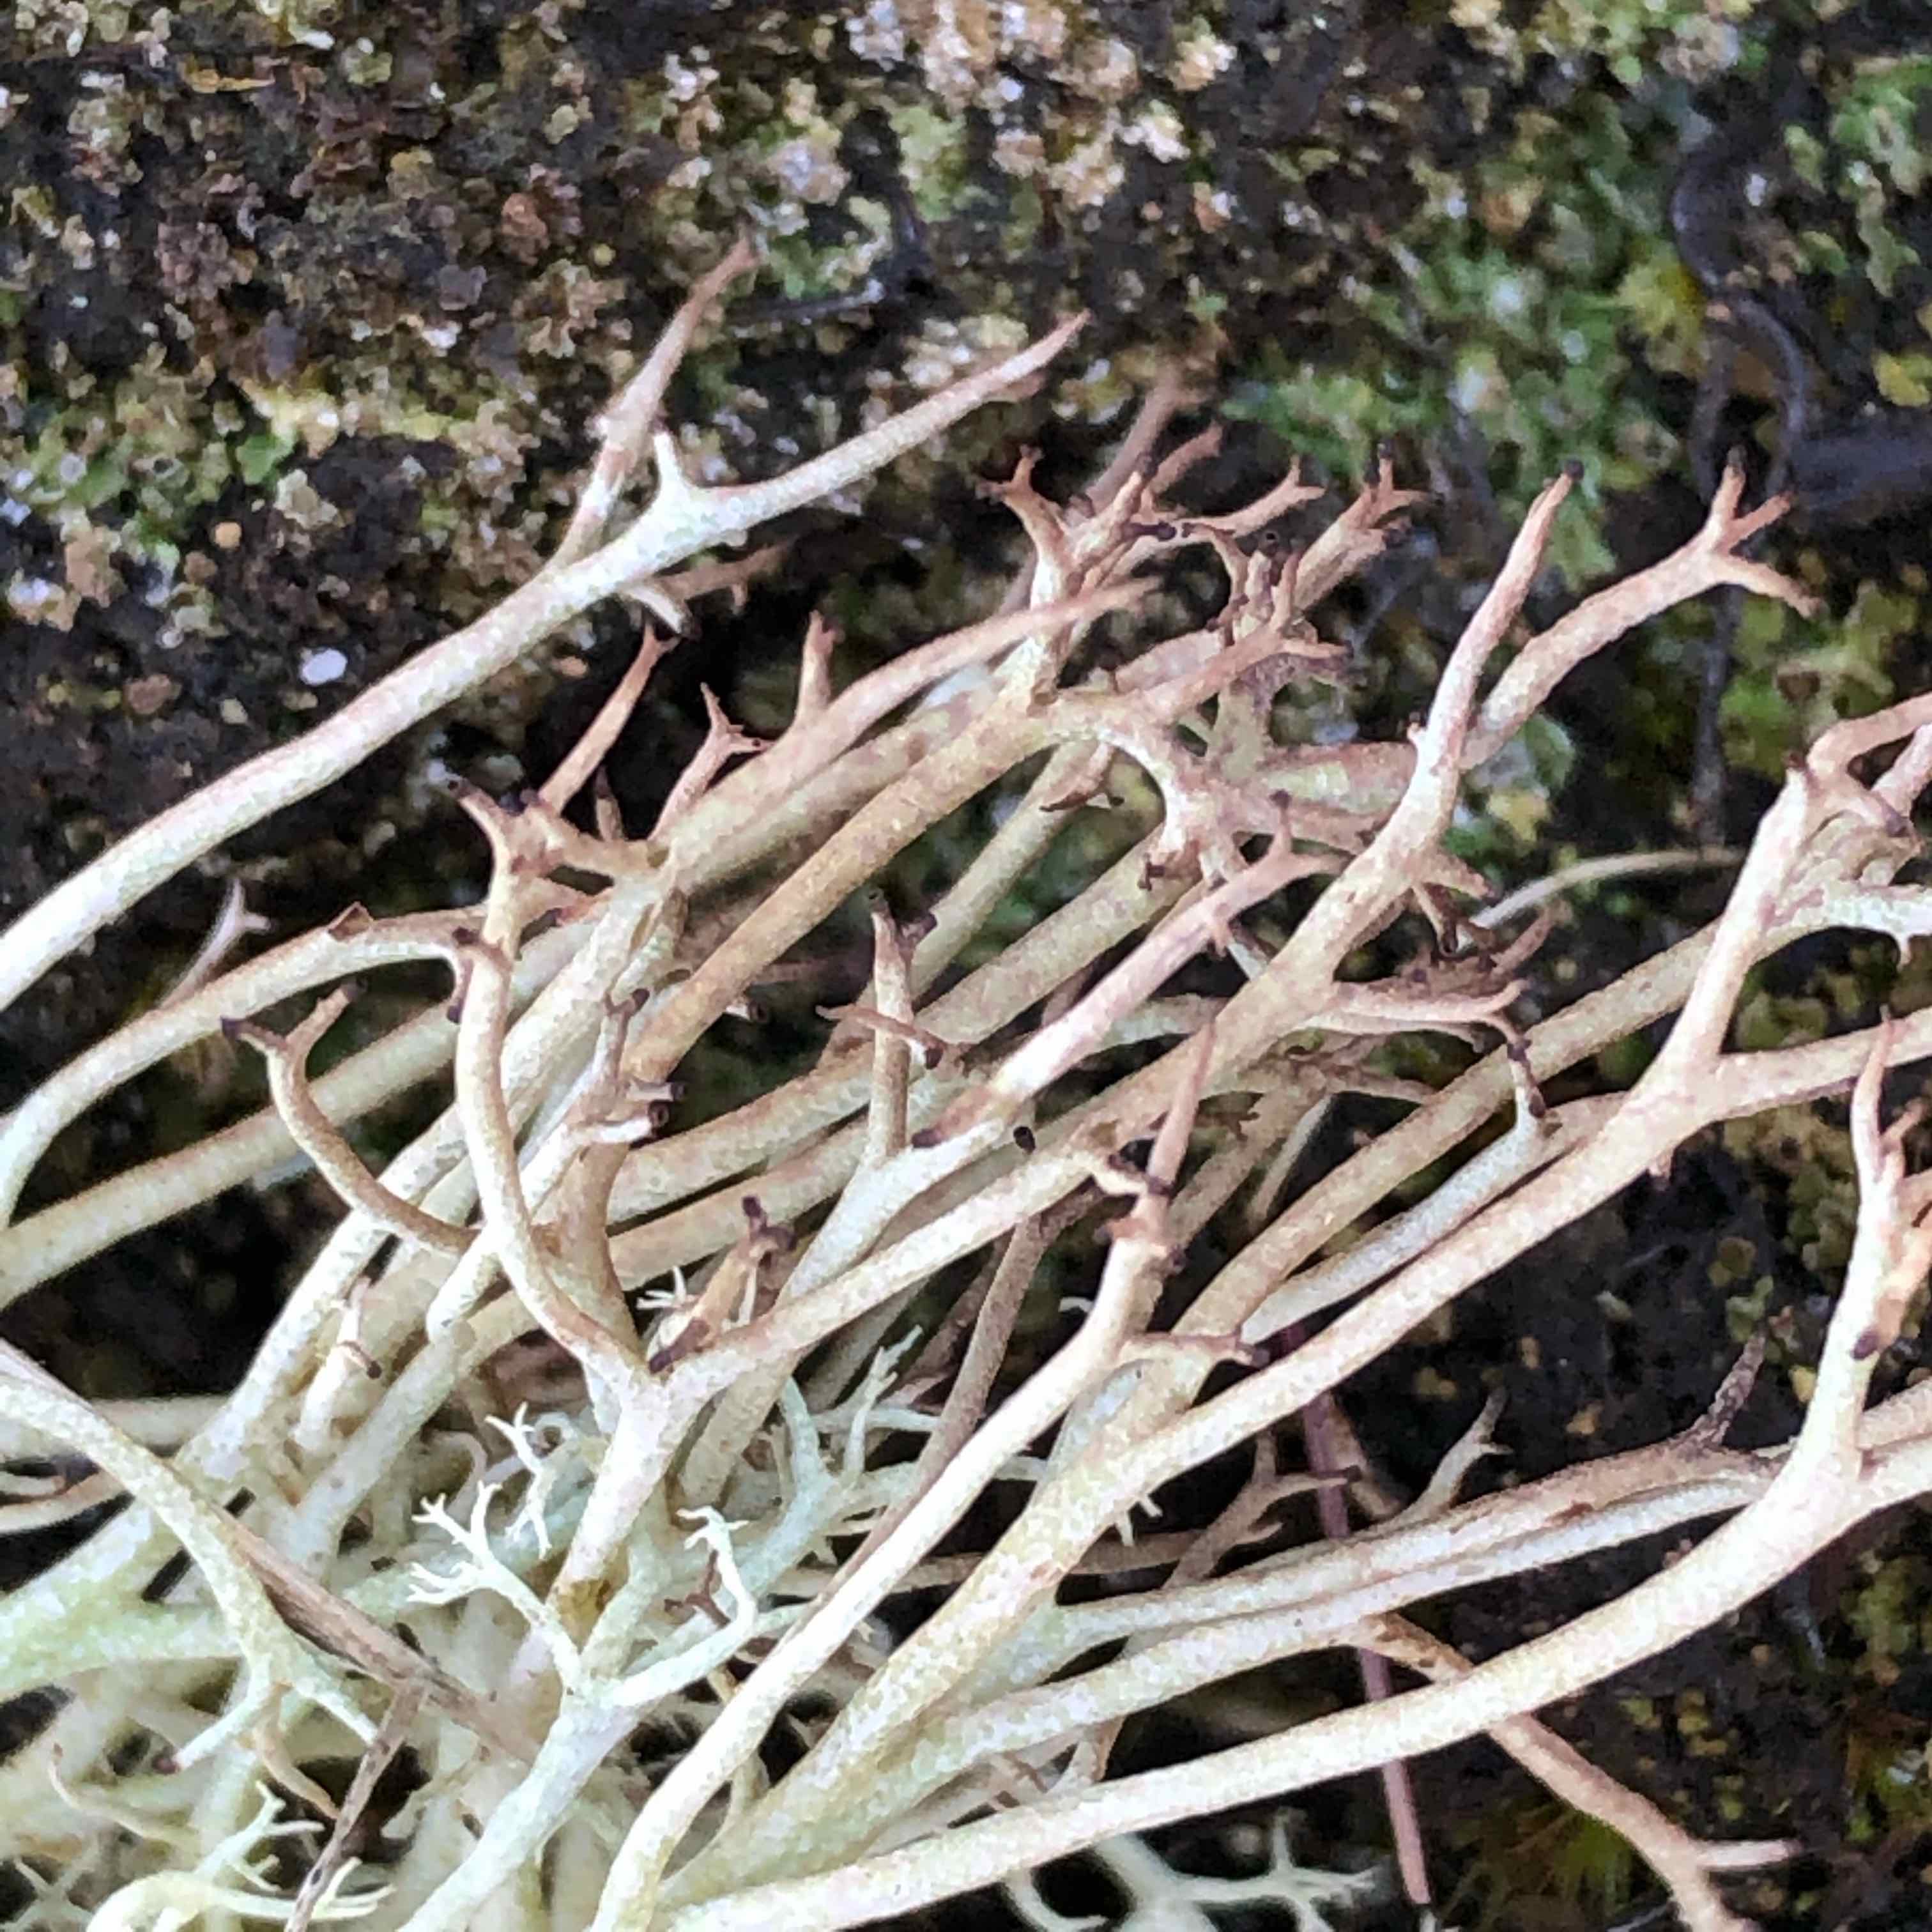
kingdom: Fungi
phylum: Ascomycota
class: Lecanoromycetes
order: Lecanorales
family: Cladoniaceae
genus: Cladonia
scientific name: Cladonia
